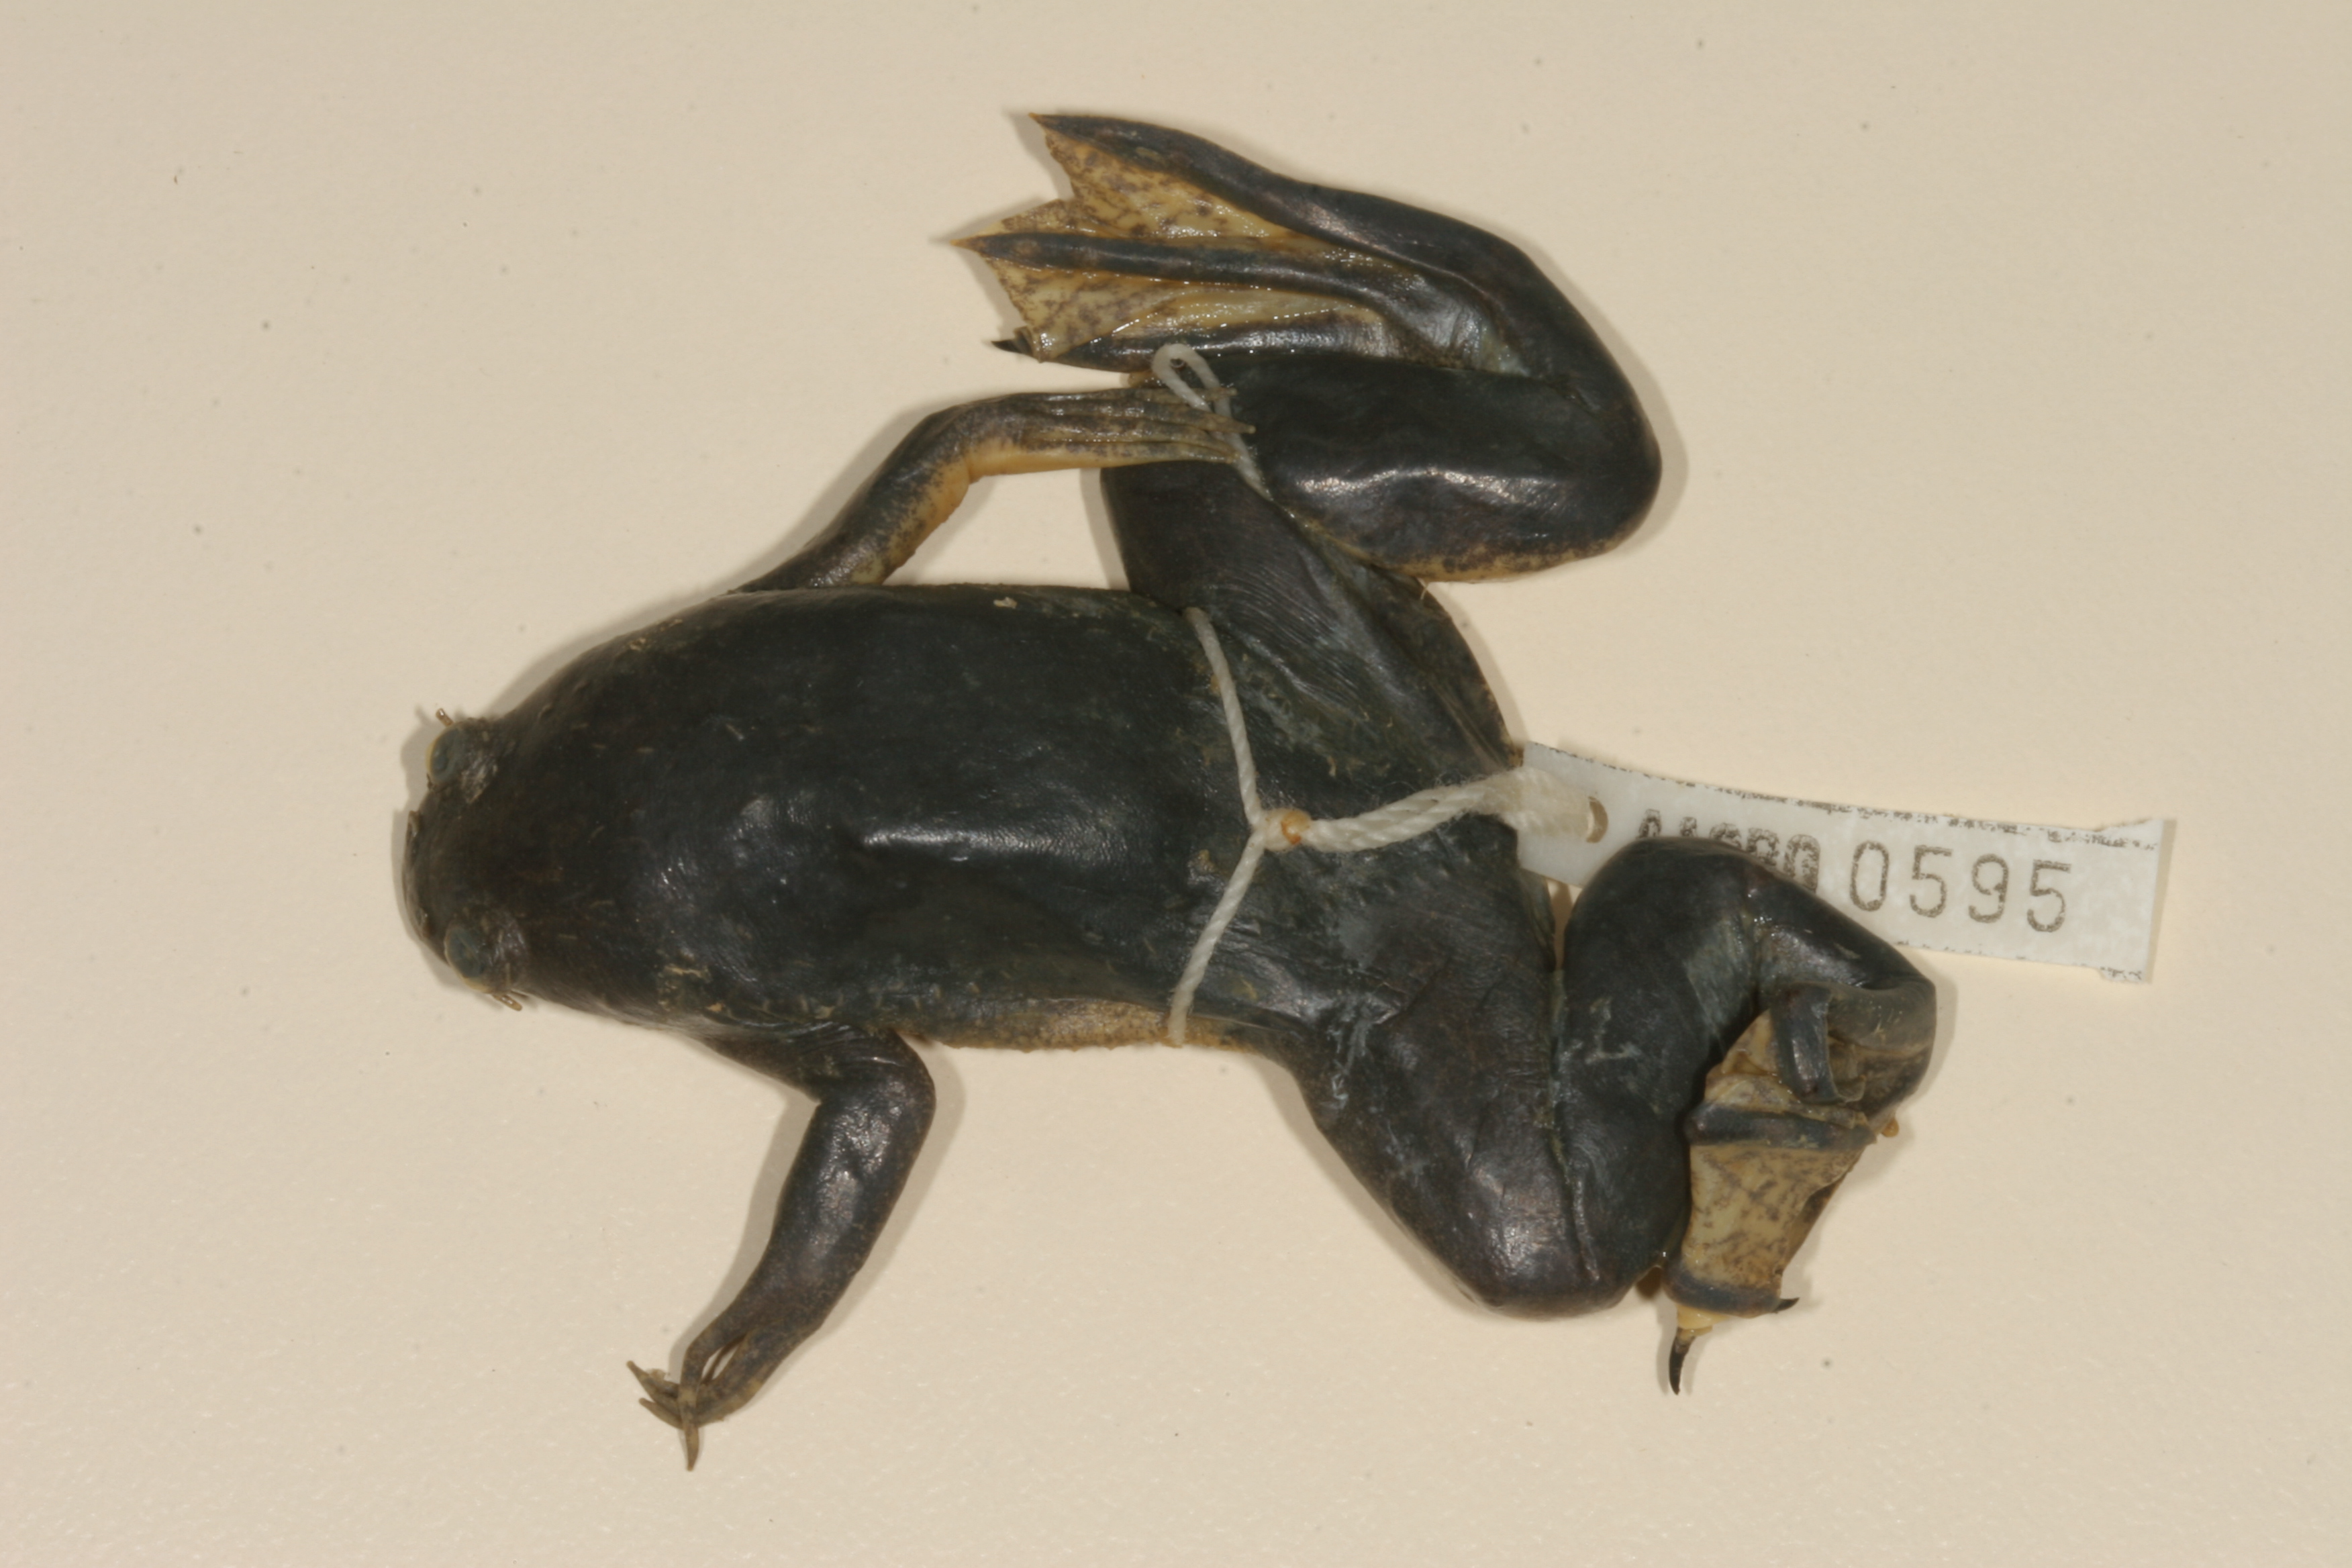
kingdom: Animalia
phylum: Chordata
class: Amphibia
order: Anura
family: Pipidae
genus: Xenopus
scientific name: Xenopus muelleri
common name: Muller's clawed frog
